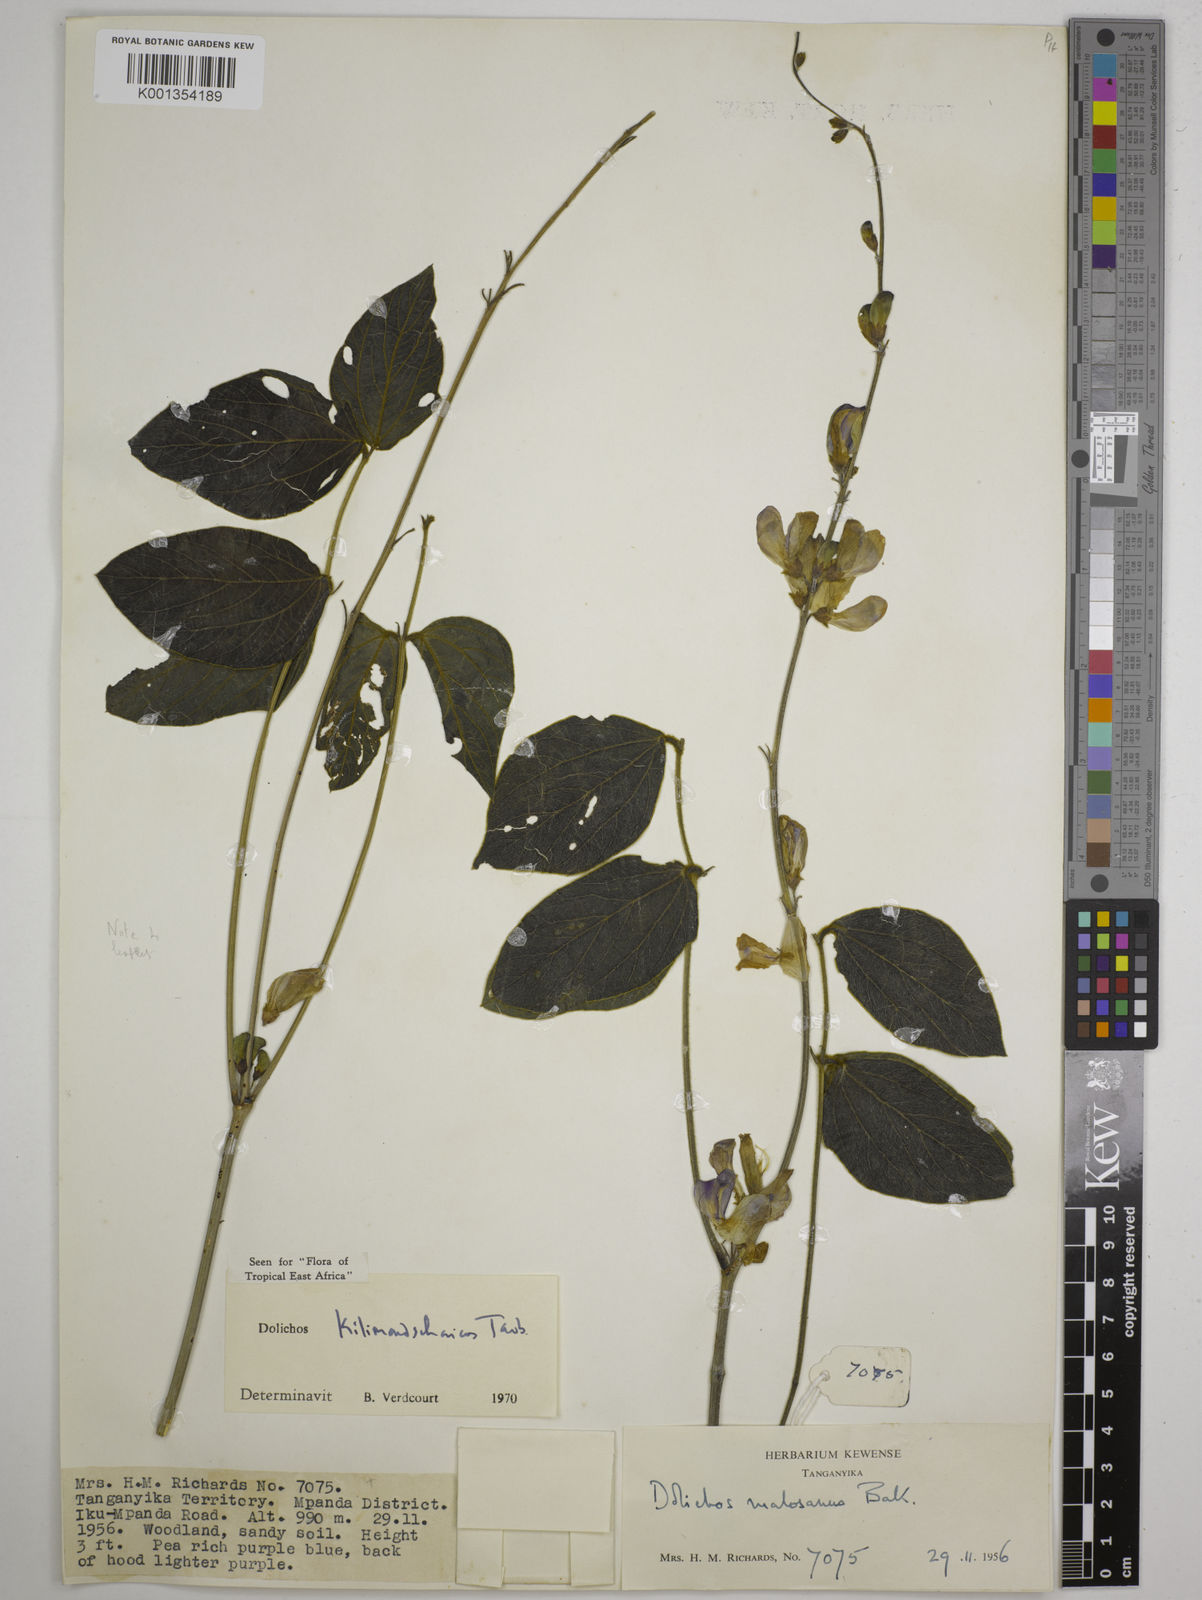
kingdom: Plantae
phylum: Tracheophyta
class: Magnoliopsida
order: Fabales
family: Fabaceae
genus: Dolichos
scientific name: Dolichos kilimandscharicus
